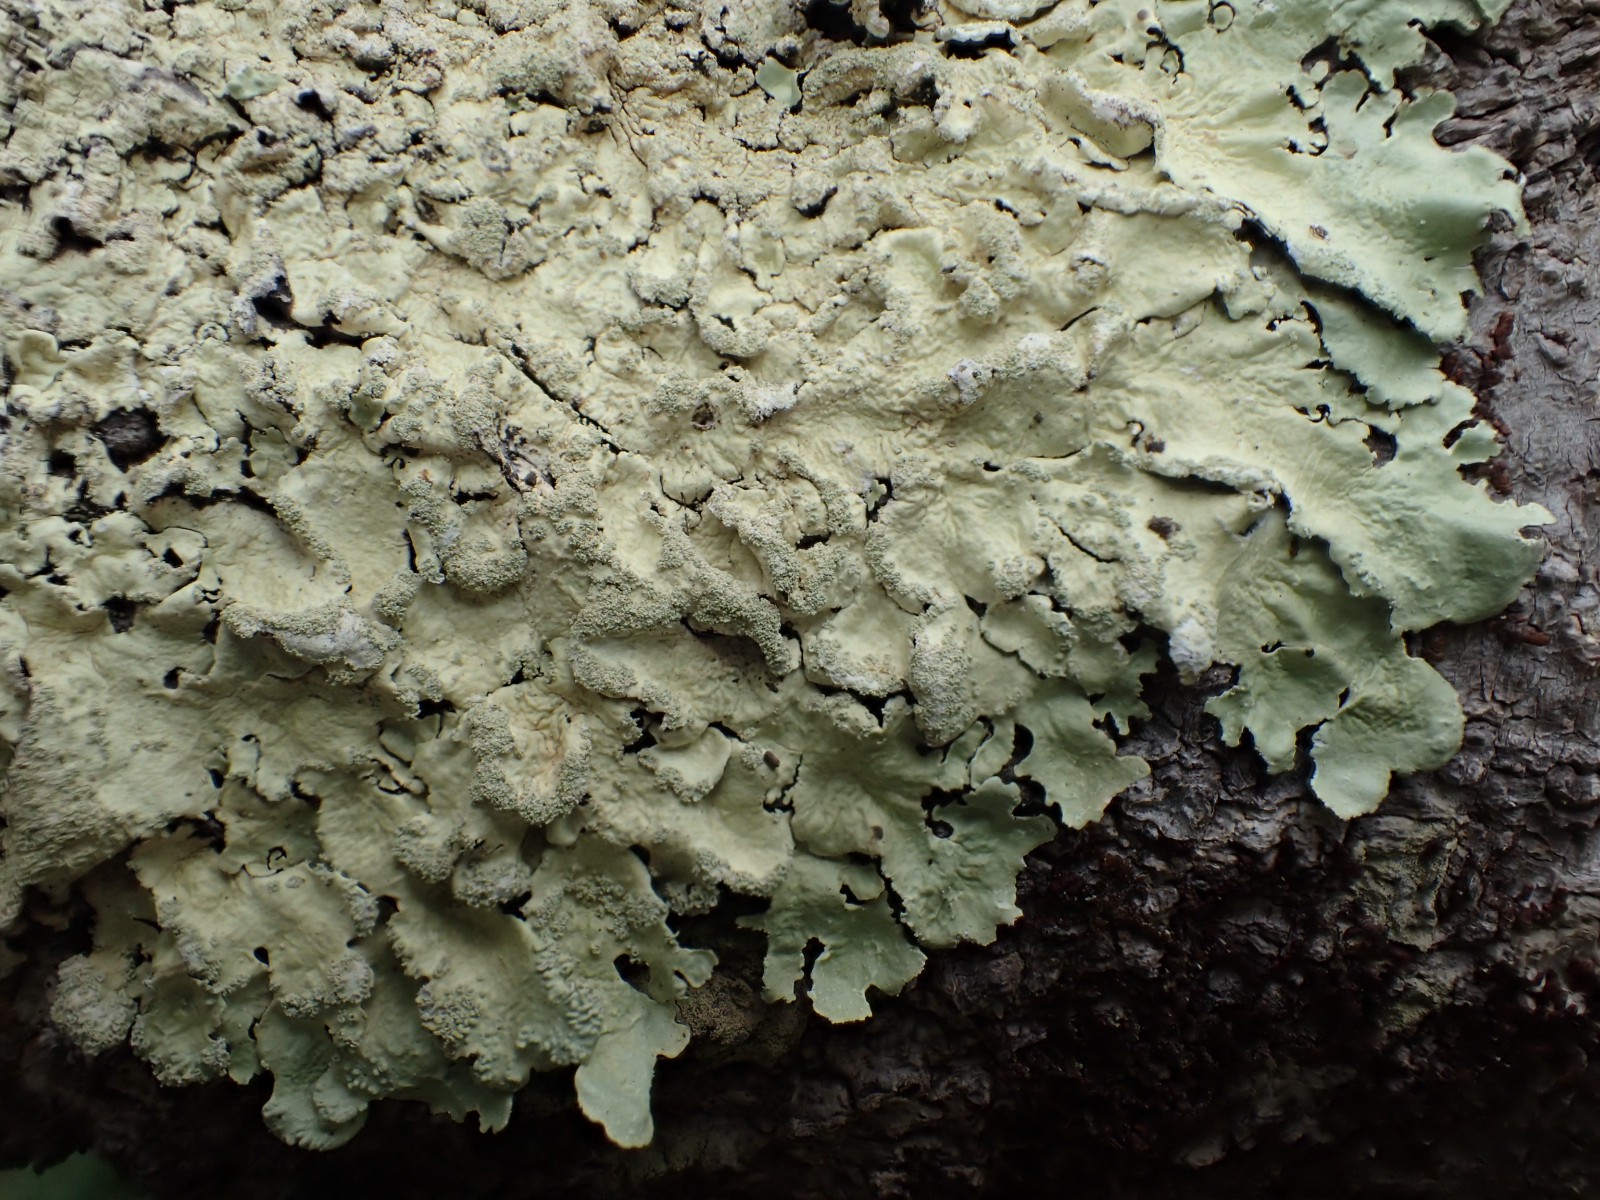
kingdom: Fungi
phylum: Ascomycota
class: Lecanoromycetes
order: Lecanorales
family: Parmeliaceae
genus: Flavoparmelia
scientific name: Flavoparmelia caperata
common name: gulgrøn skållav
